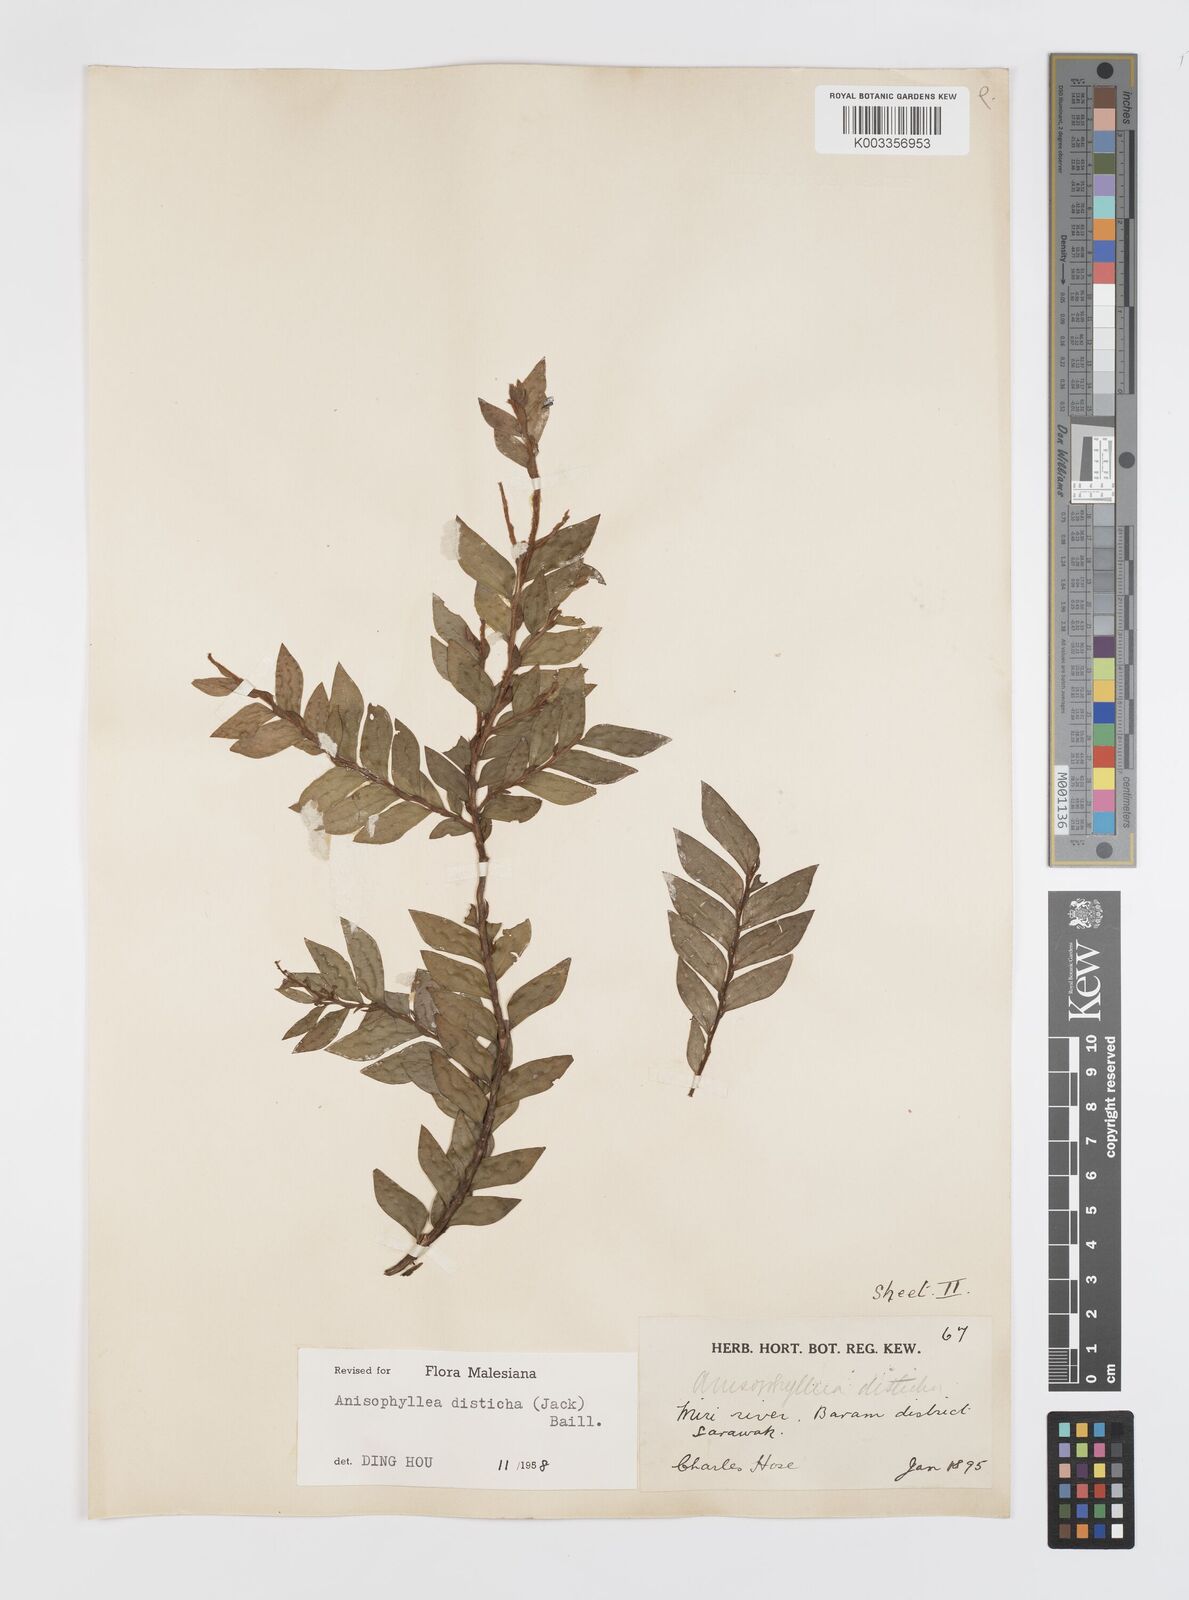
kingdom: Plantae
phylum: Tracheophyta
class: Magnoliopsida
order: Cucurbitales
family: Anisophylleaceae
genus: Anisophyllea
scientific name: Anisophyllea disticha
